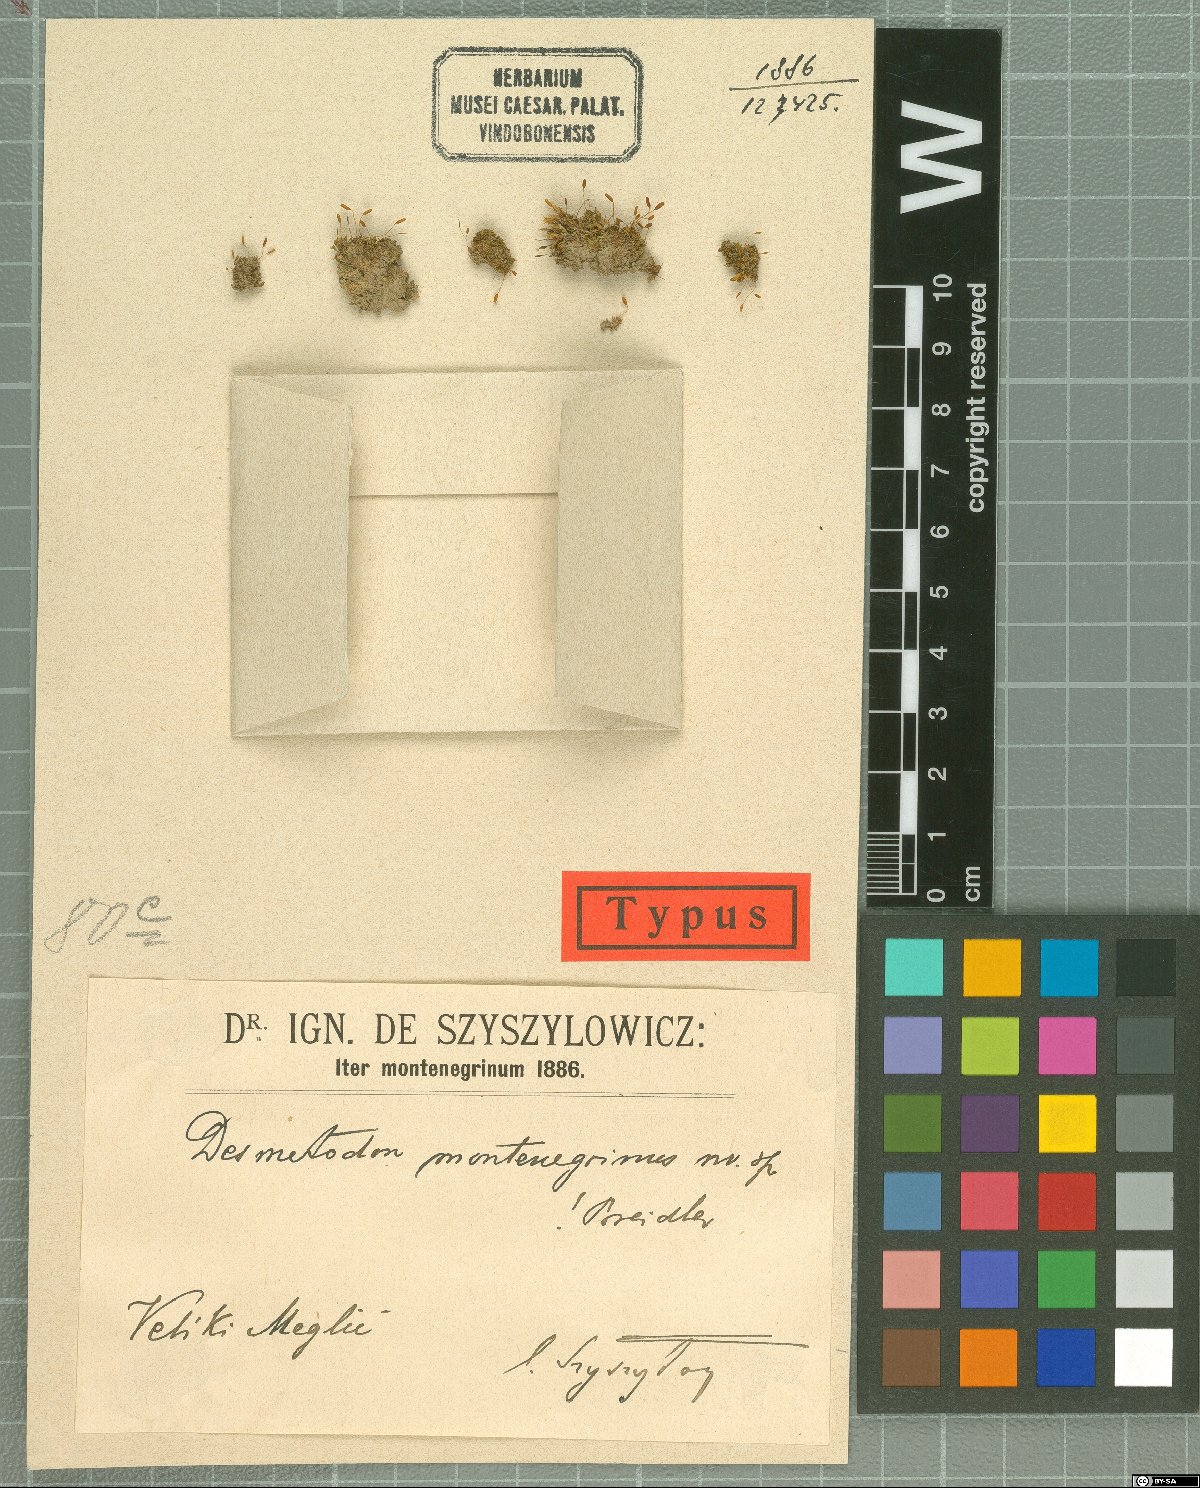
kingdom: Plantae
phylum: Bryophyta
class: Bryopsida
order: Pottiales
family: Pottiaceae
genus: Tortula
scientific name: Tortula muralis
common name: Wall screw-moss
